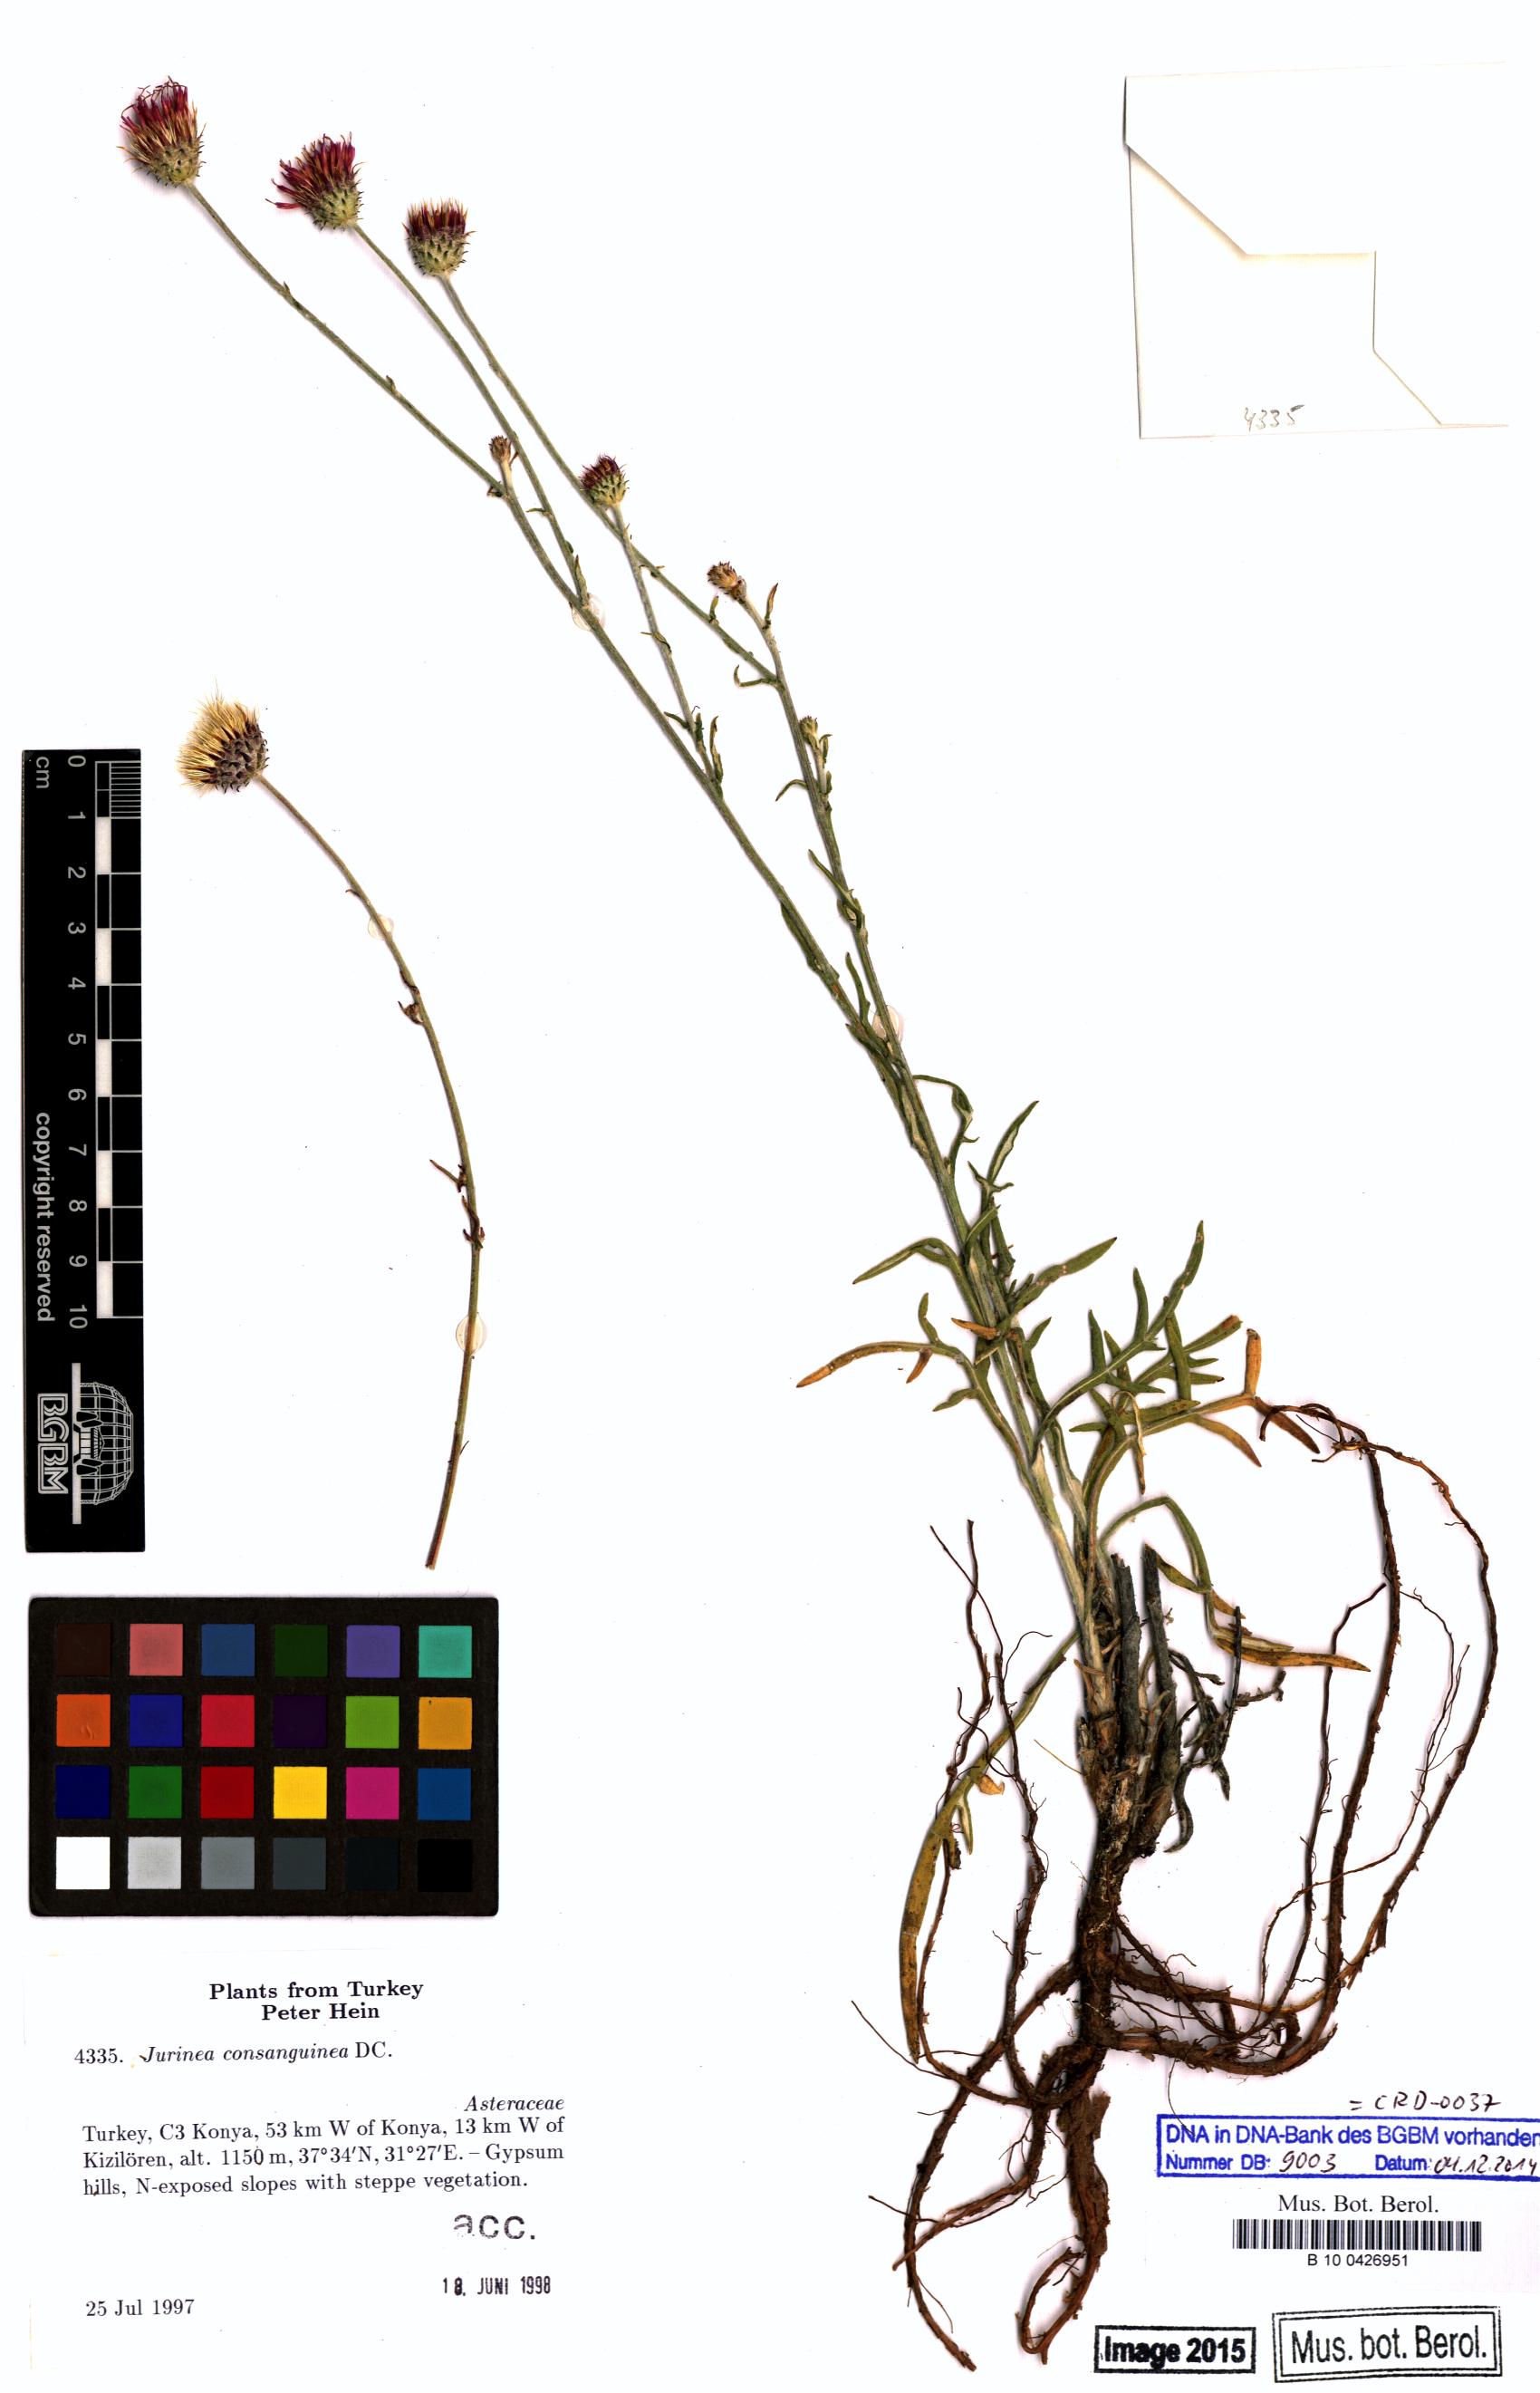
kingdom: Plantae
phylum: Tracheophyta
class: Magnoliopsida
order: Asterales
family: Asteraceae
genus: Jurinea
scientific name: Jurinea consanguinea
